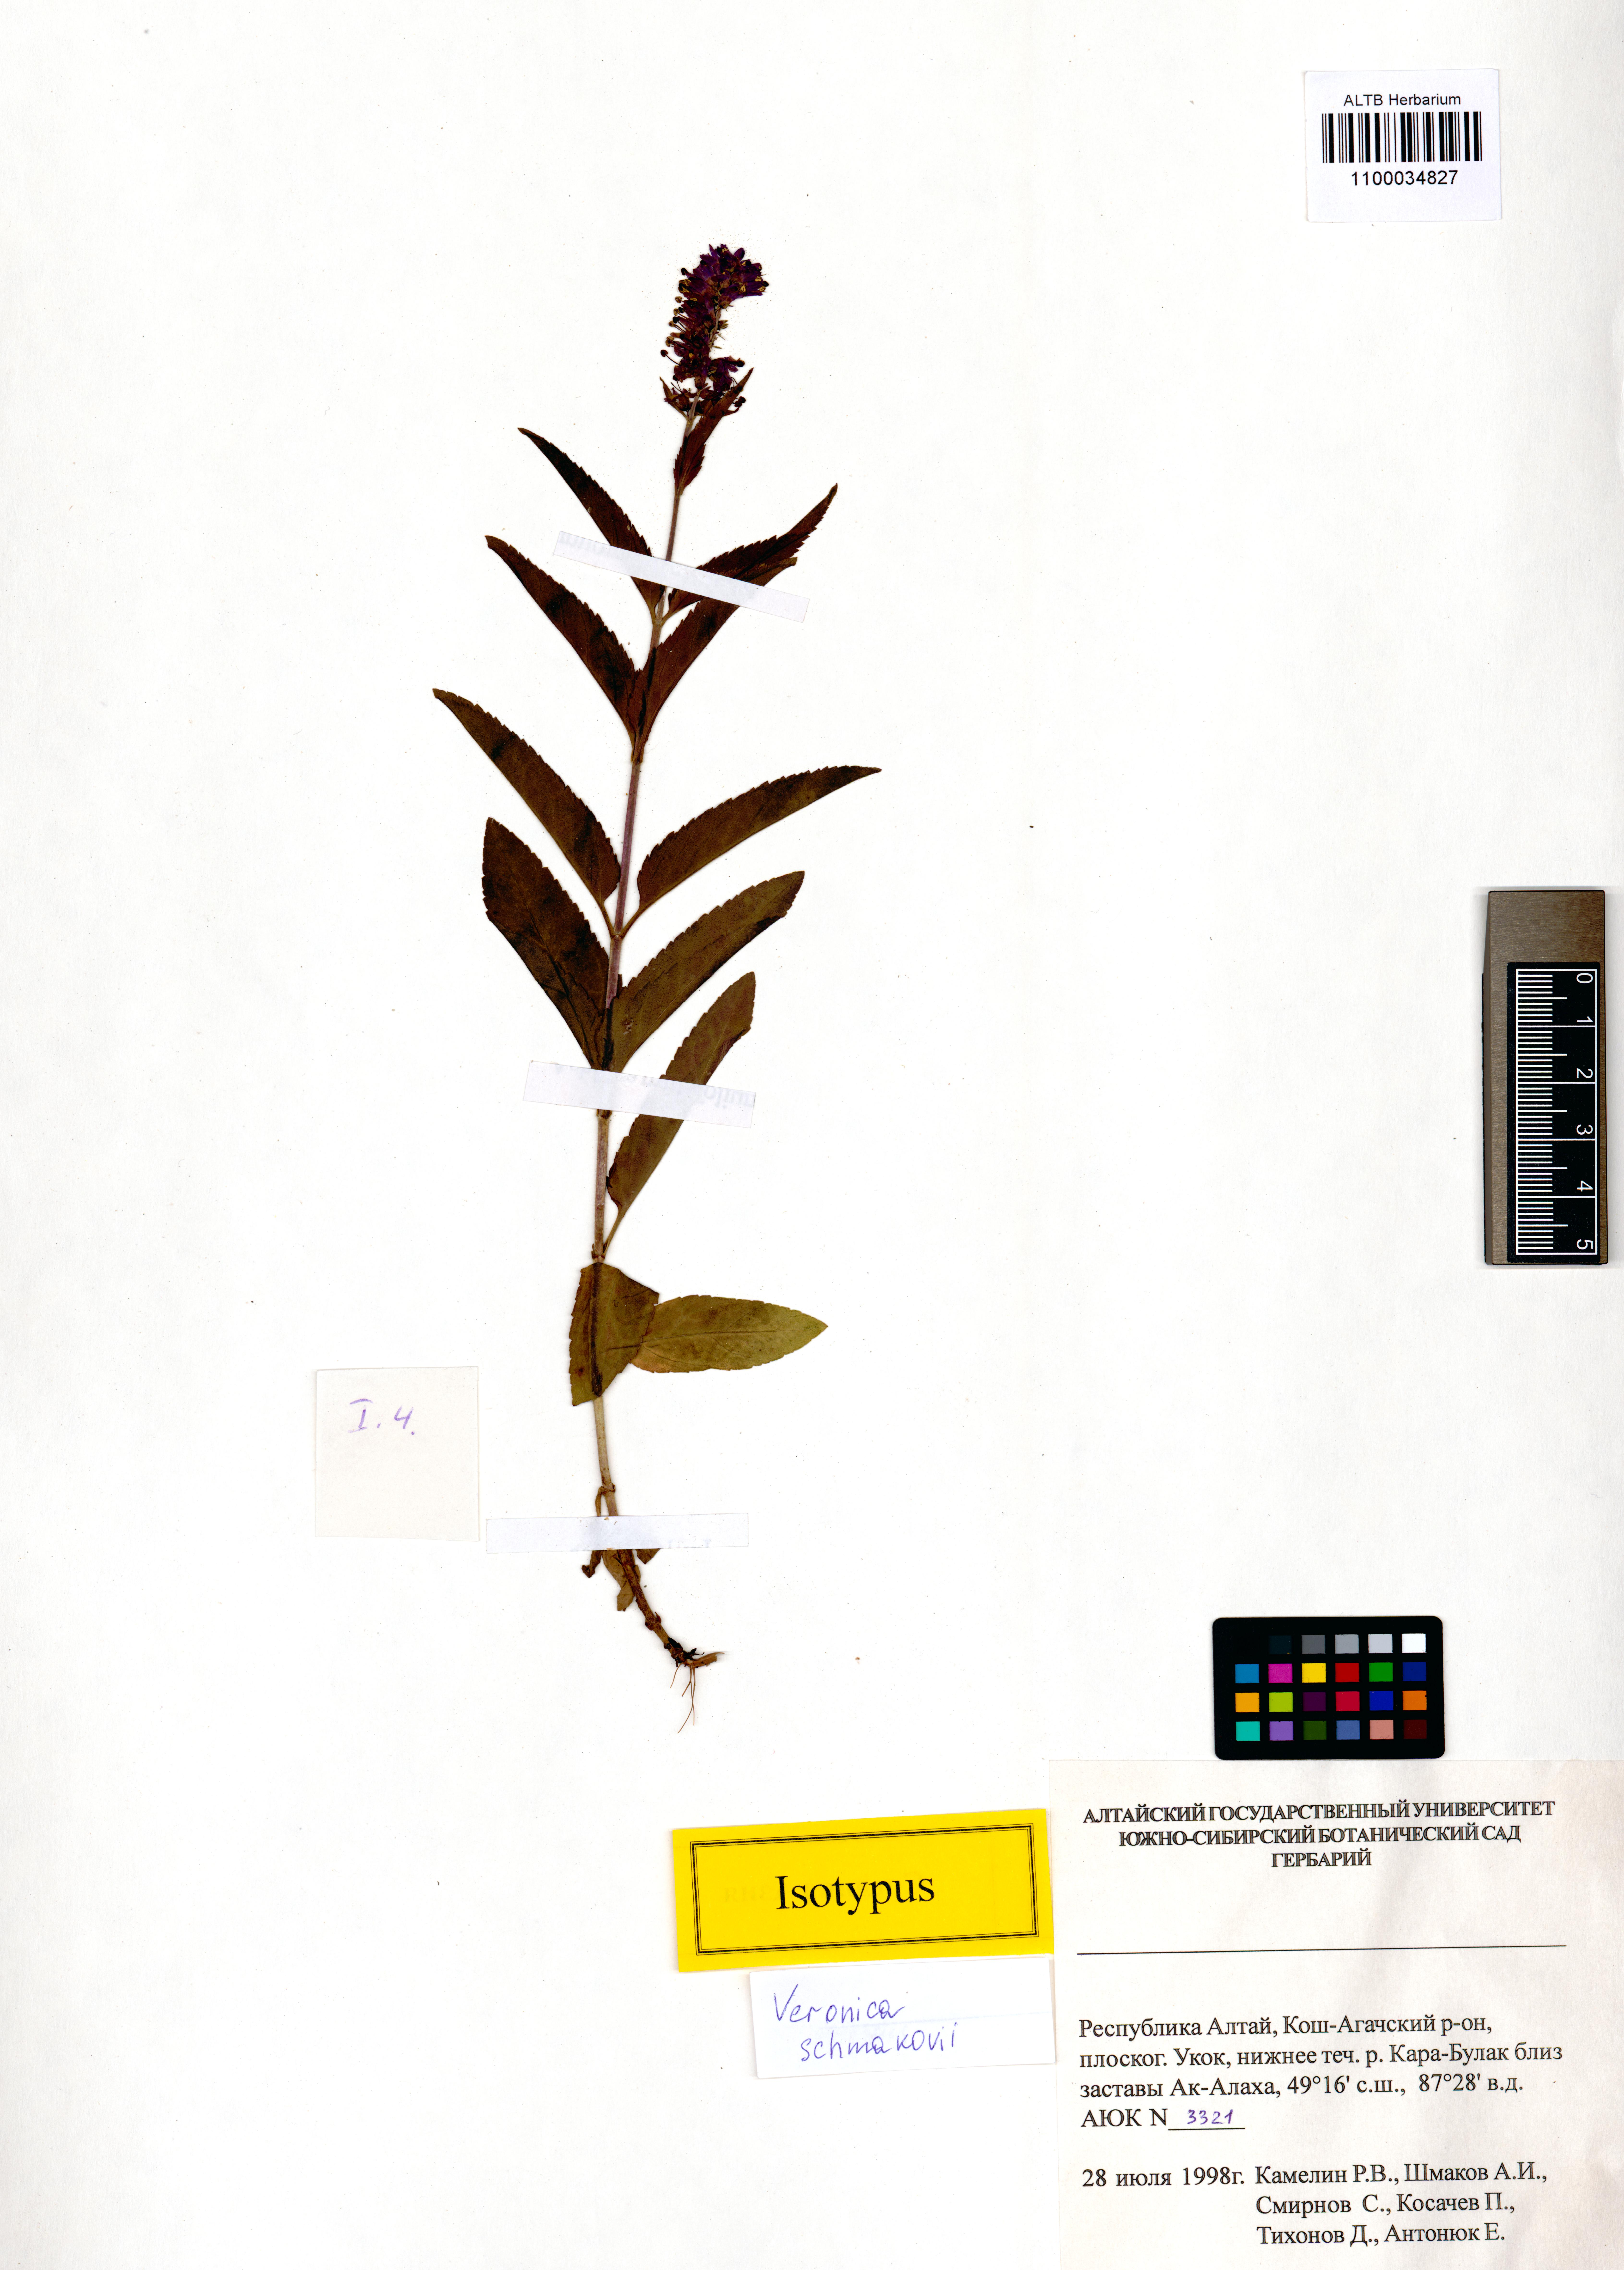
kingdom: Plantae
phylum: Tracheophyta
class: Magnoliopsida
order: Lamiales
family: Plantaginaceae
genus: Veronica
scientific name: Veronica schmakovii
